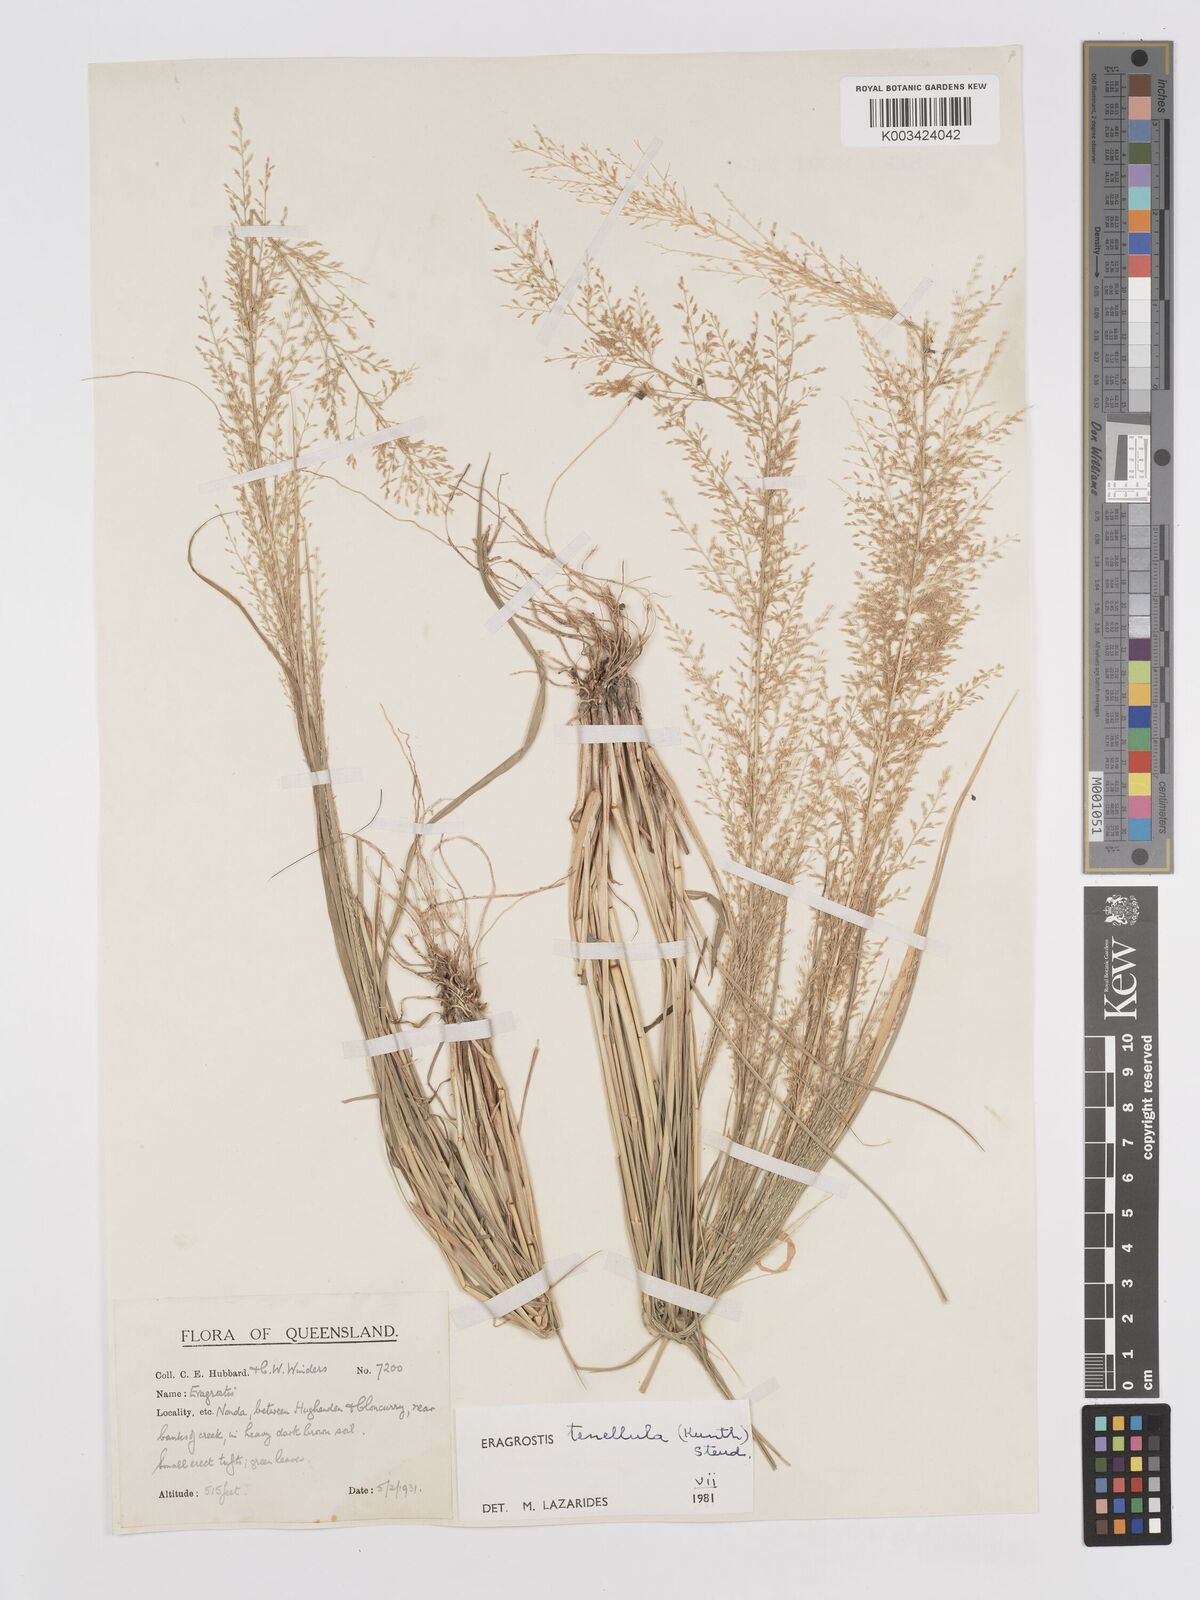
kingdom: Plantae
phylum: Tracheophyta
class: Liliopsida
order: Poales
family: Poaceae
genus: Eragrostis
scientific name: Eragrostis tenellula
